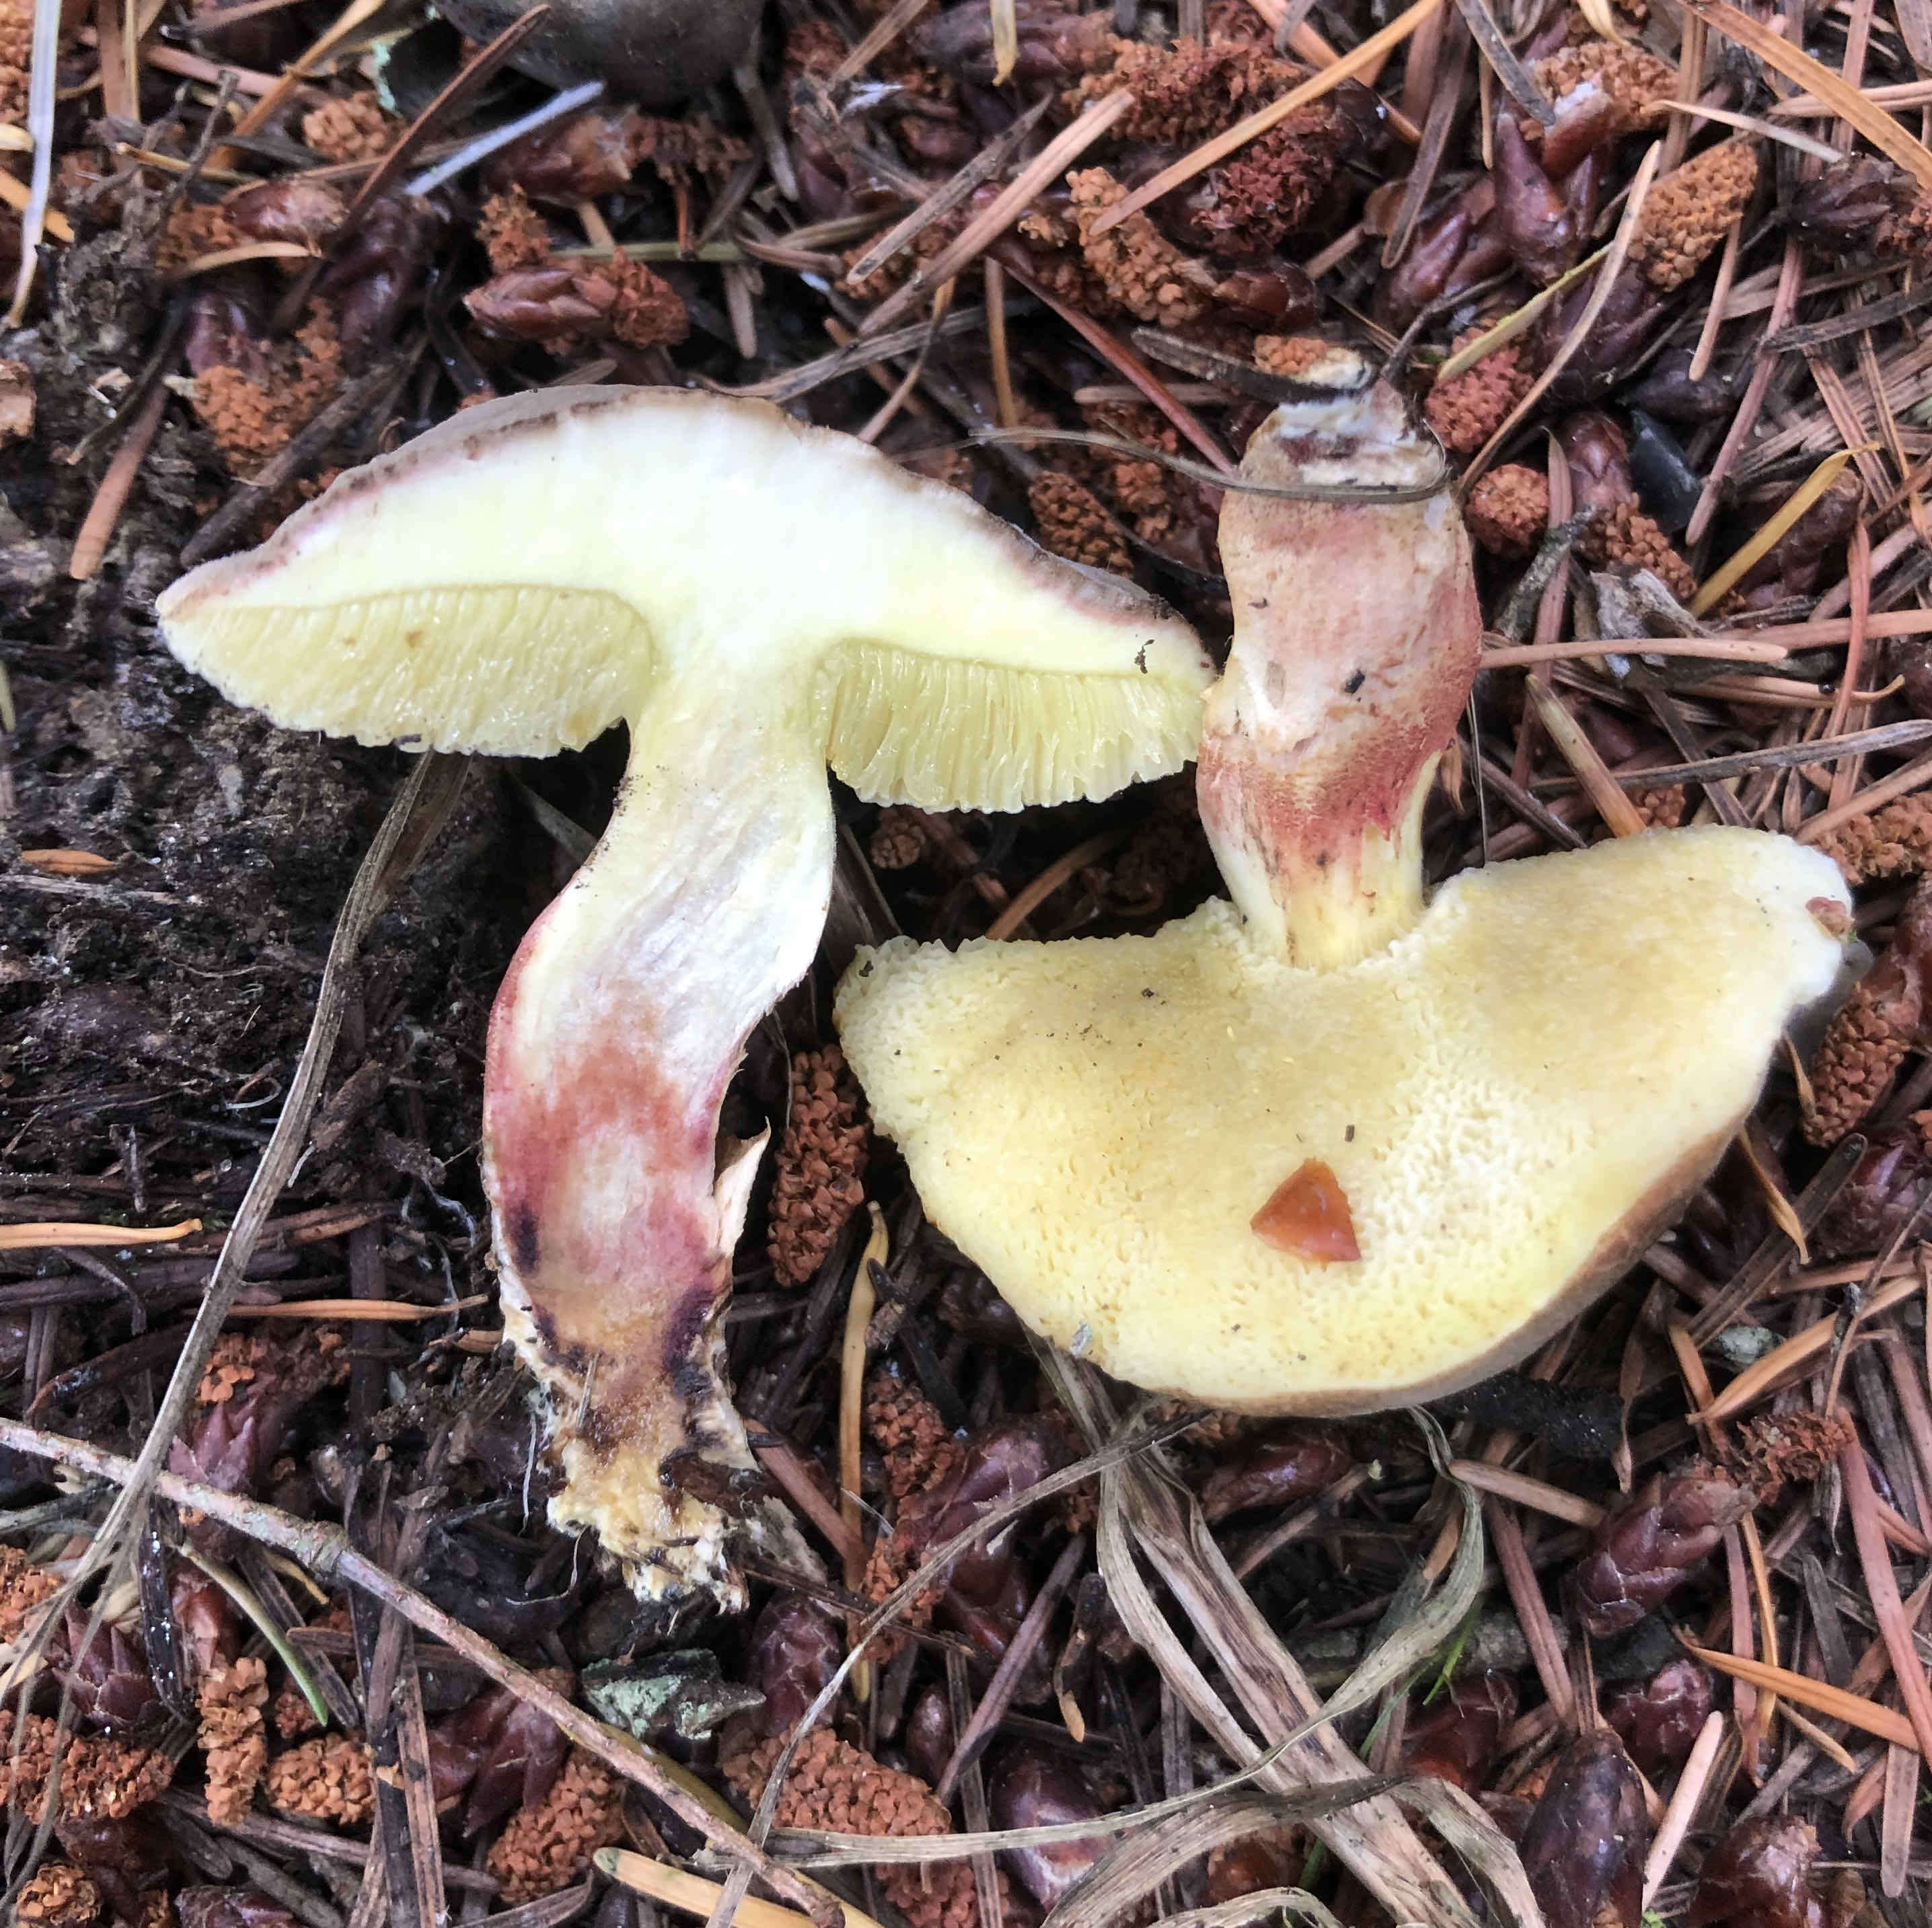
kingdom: Fungi
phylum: Basidiomycota
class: Agaricomycetes
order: Boletales
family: Boletaceae
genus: Xerocomellus
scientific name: Xerocomellus
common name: dværgrørhat
